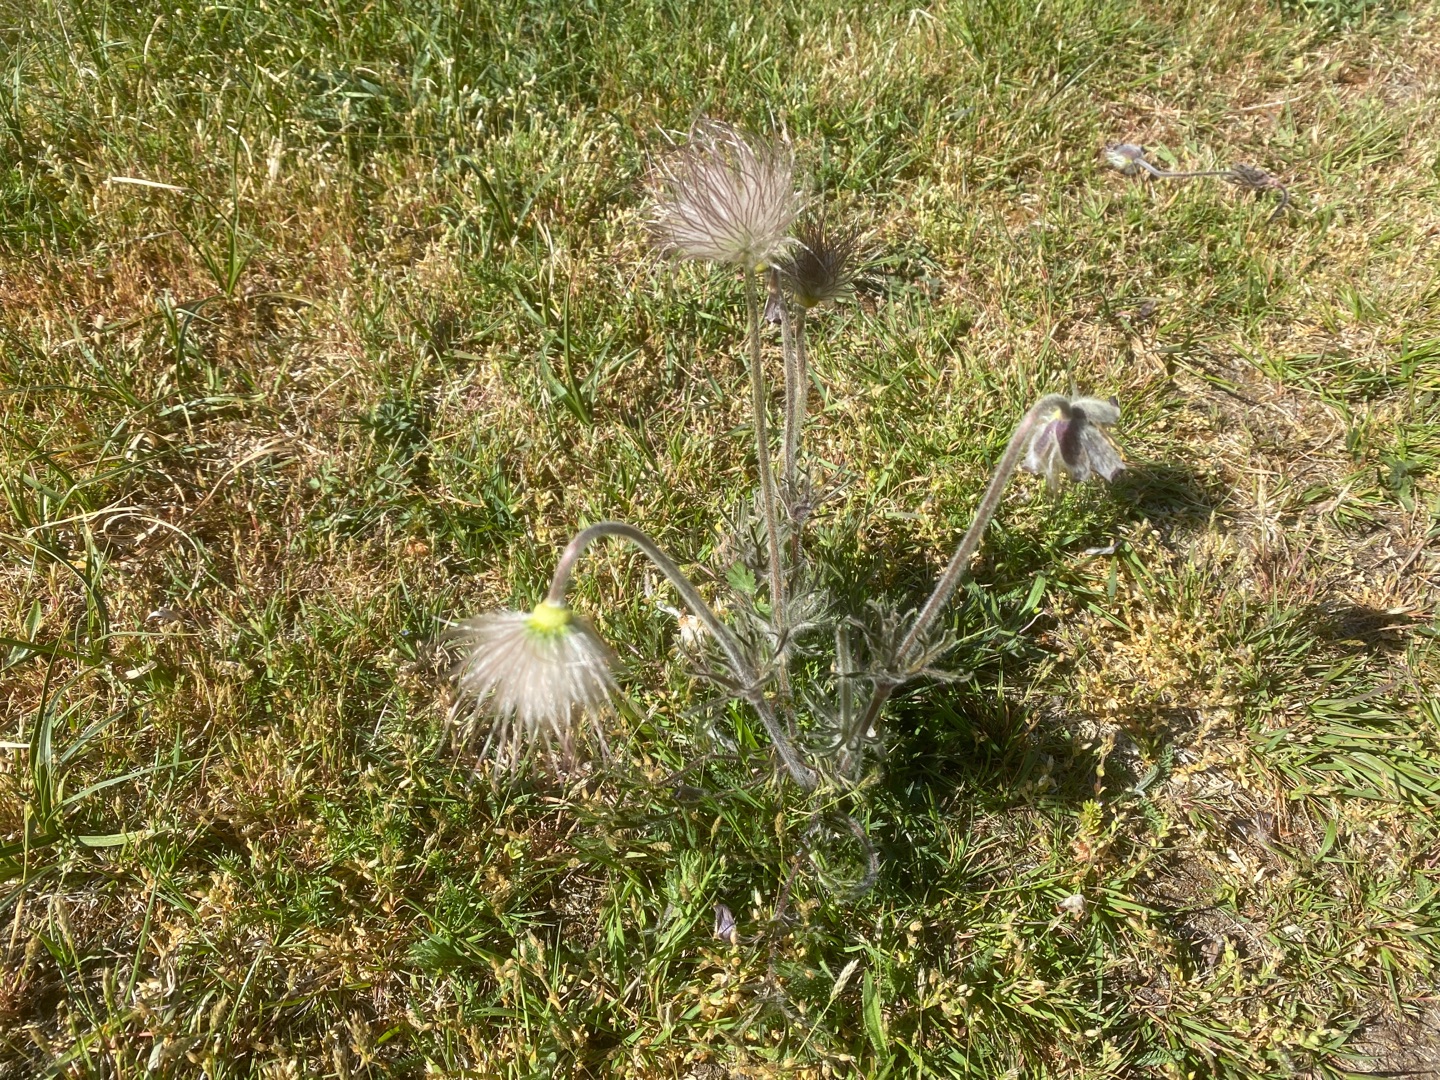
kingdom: Plantae
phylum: Tracheophyta
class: Magnoliopsida
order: Ranunculales
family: Ranunculaceae
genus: Pulsatilla
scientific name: Pulsatilla pratensis
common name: Nikkende kobjælde
